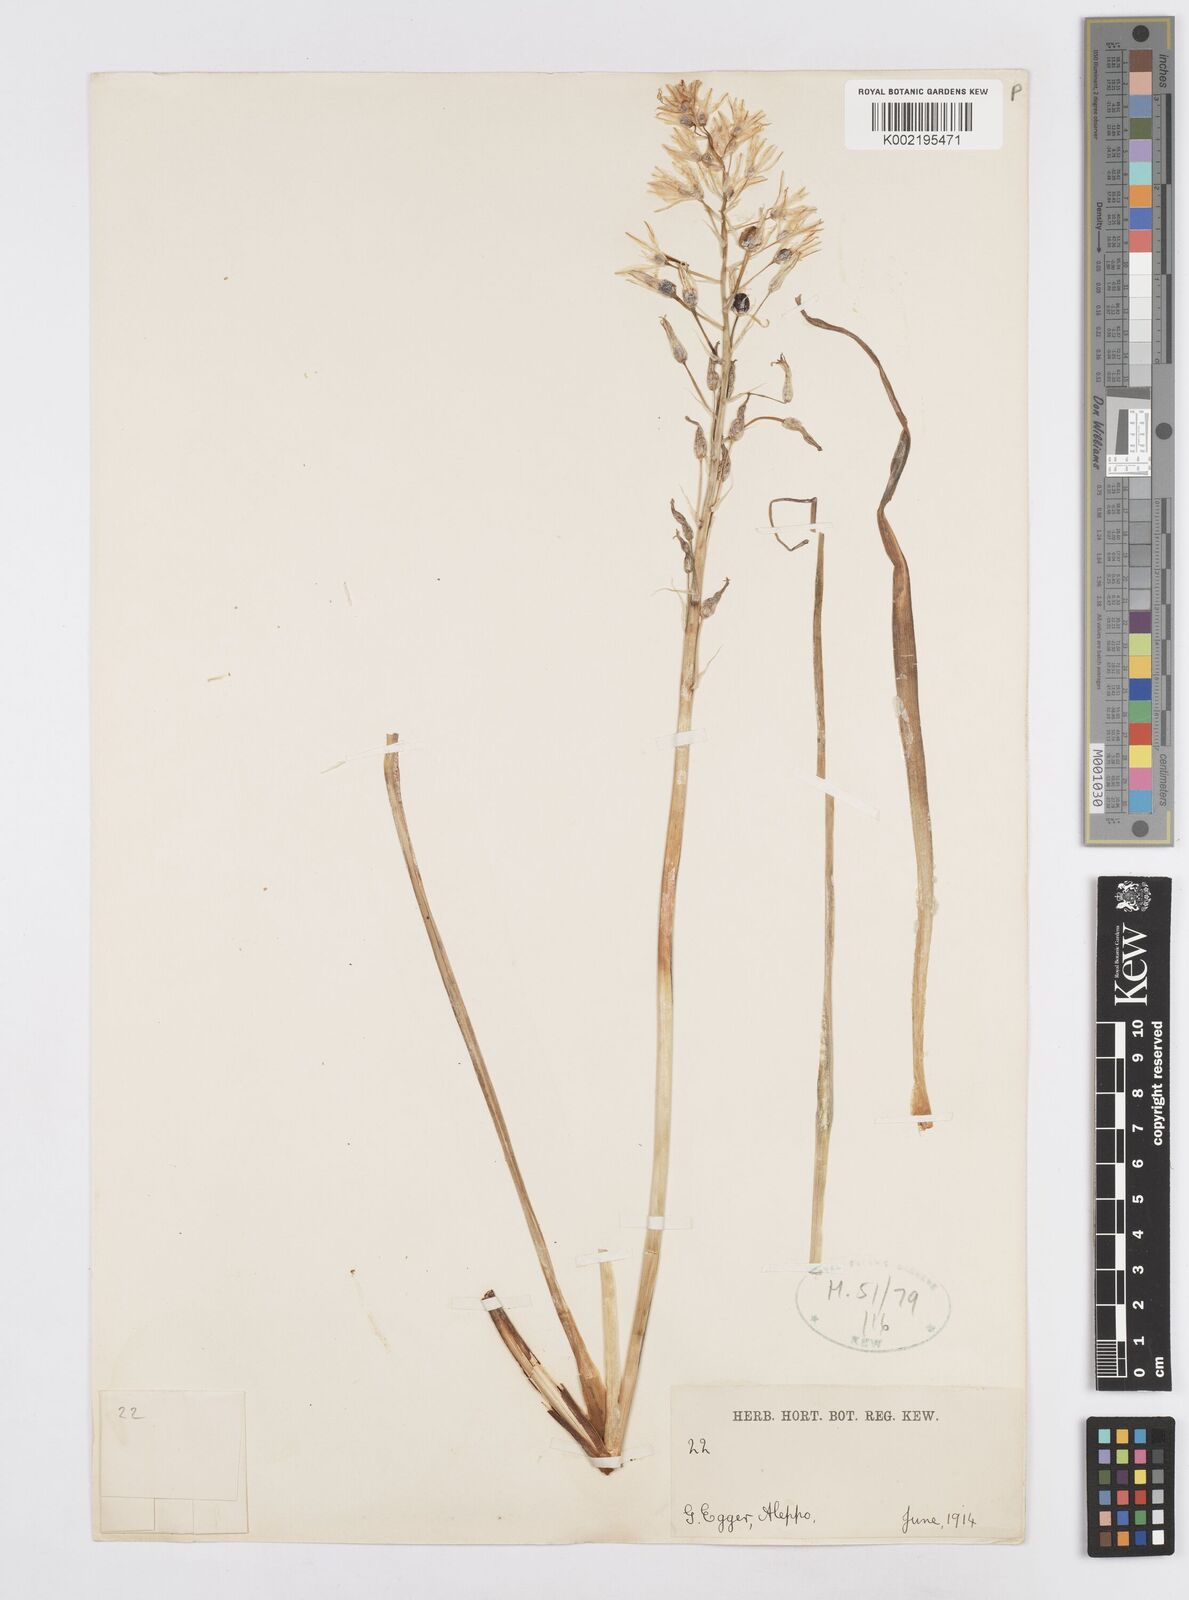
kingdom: Plantae
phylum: Tracheophyta
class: Liliopsida
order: Asparagales
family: Asparagaceae
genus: Ornithogalum
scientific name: Ornithogalum
